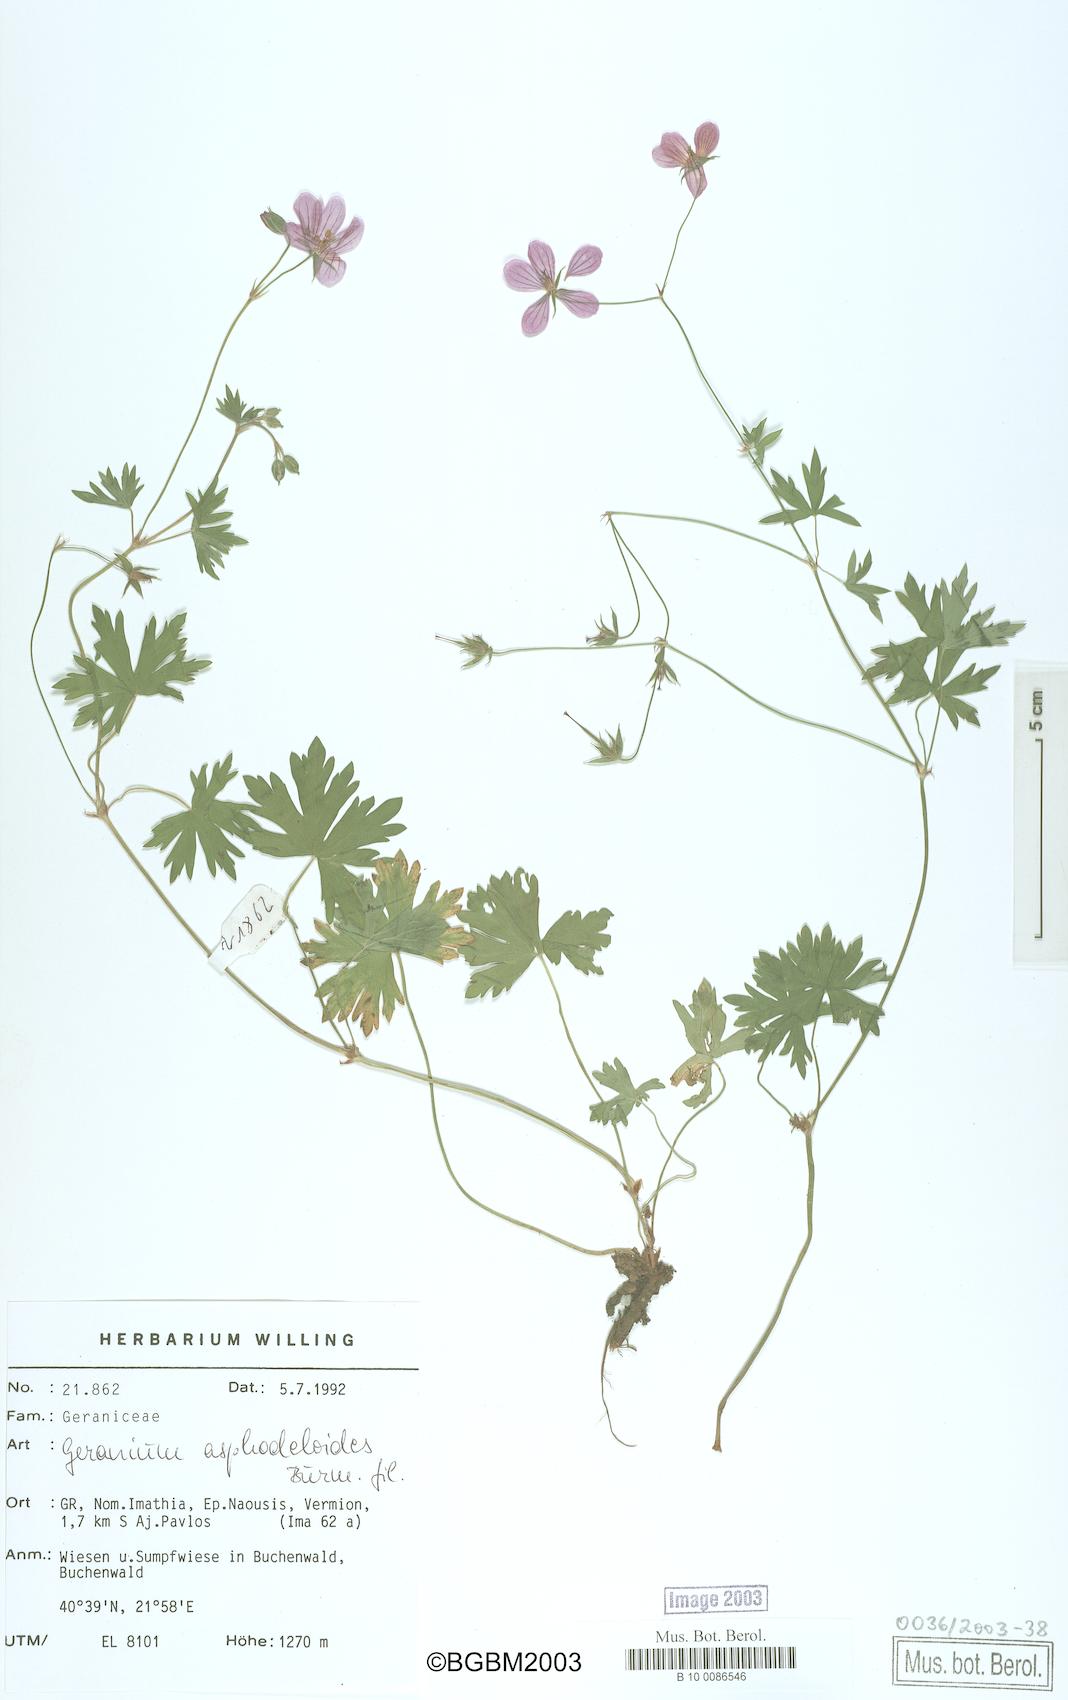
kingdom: Plantae
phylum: Tracheophyta
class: Magnoliopsida
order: Geraniales
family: Geraniaceae
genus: Geranium
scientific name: Geranium asphodeloides
